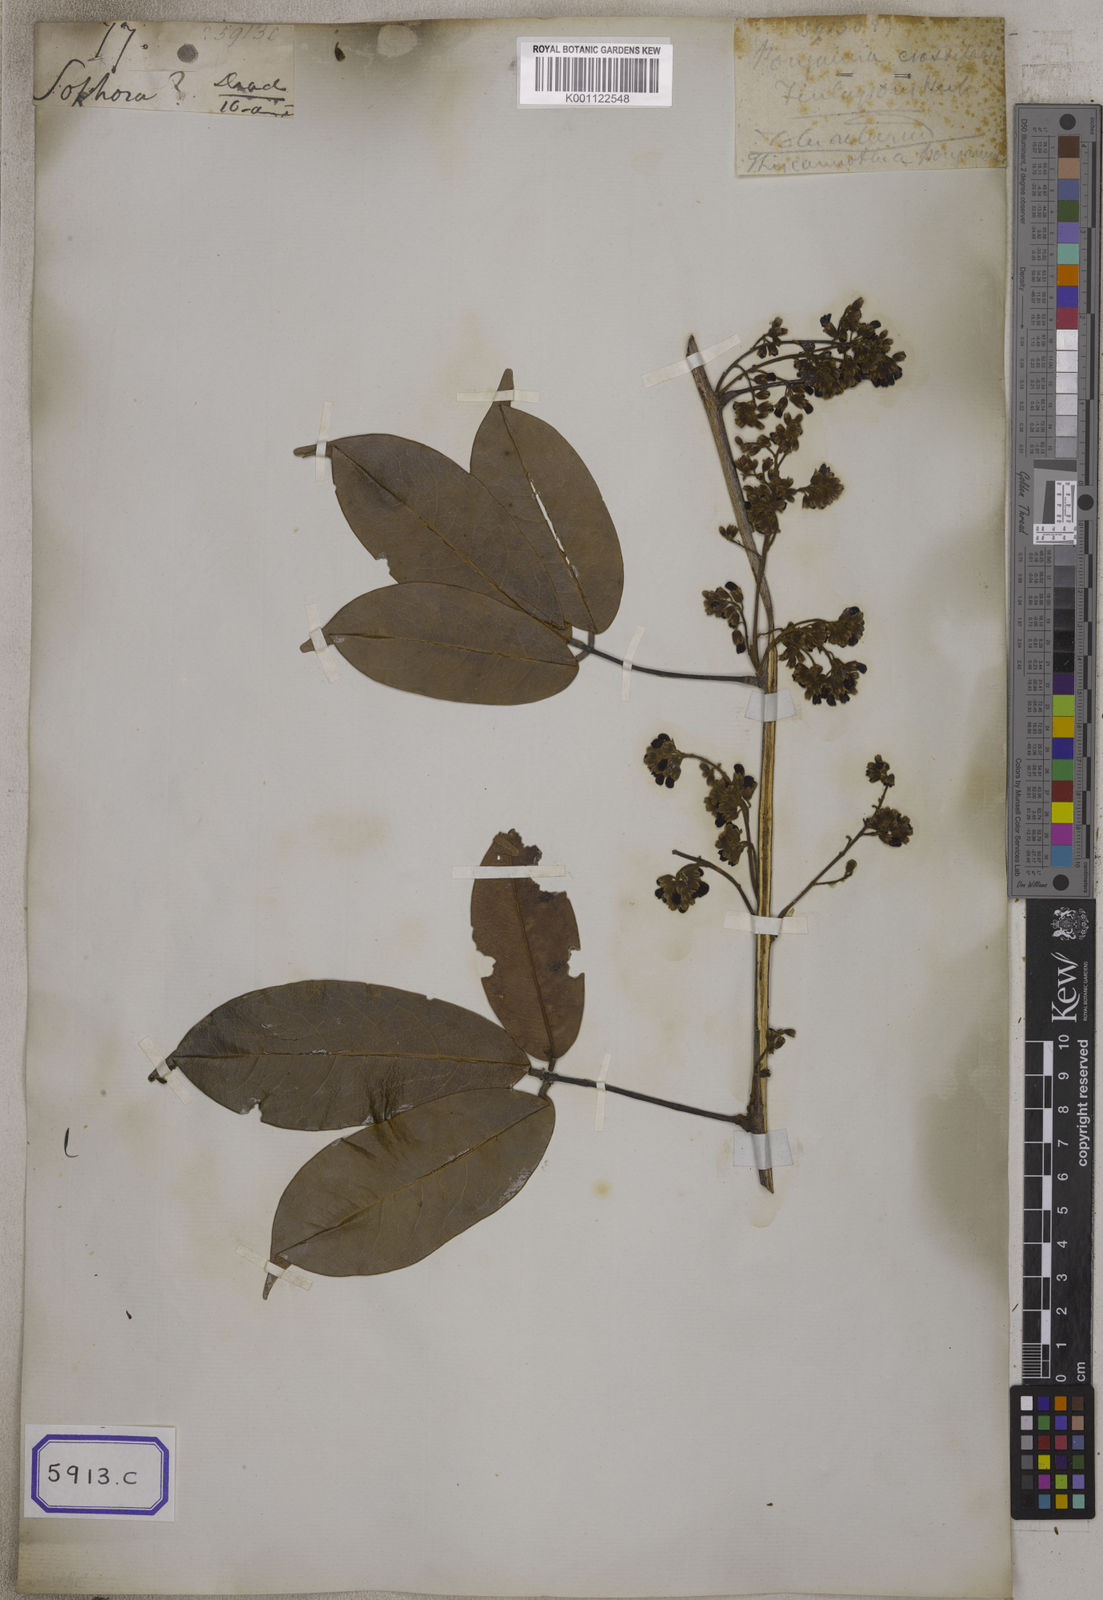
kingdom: Plantae
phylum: Tracheophyta
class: Magnoliopsida
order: Fabales
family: Fabaceae
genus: Spatholobus
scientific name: Spatholobus crassifolius
